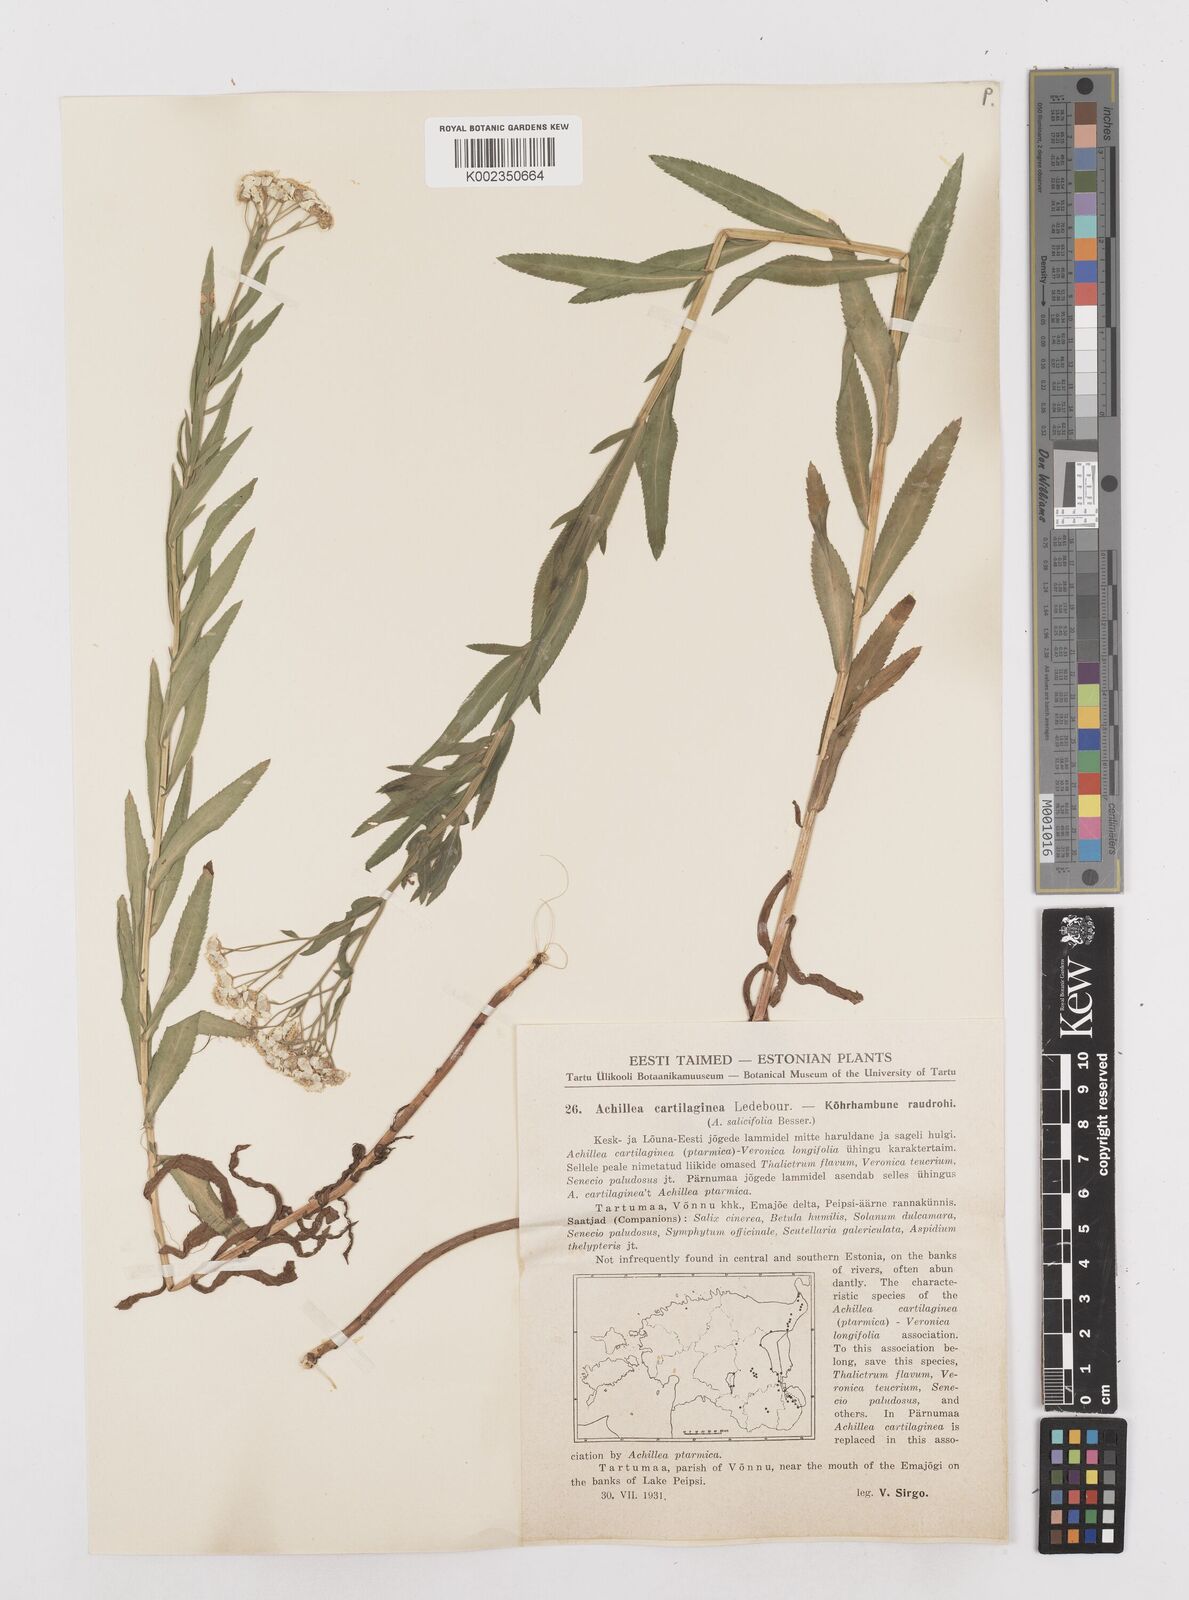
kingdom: Plantae
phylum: Tracheophyta
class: Magnoliopsida
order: Asterales
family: Asteraceae
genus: Achillea
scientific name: Achillea salicifolia
